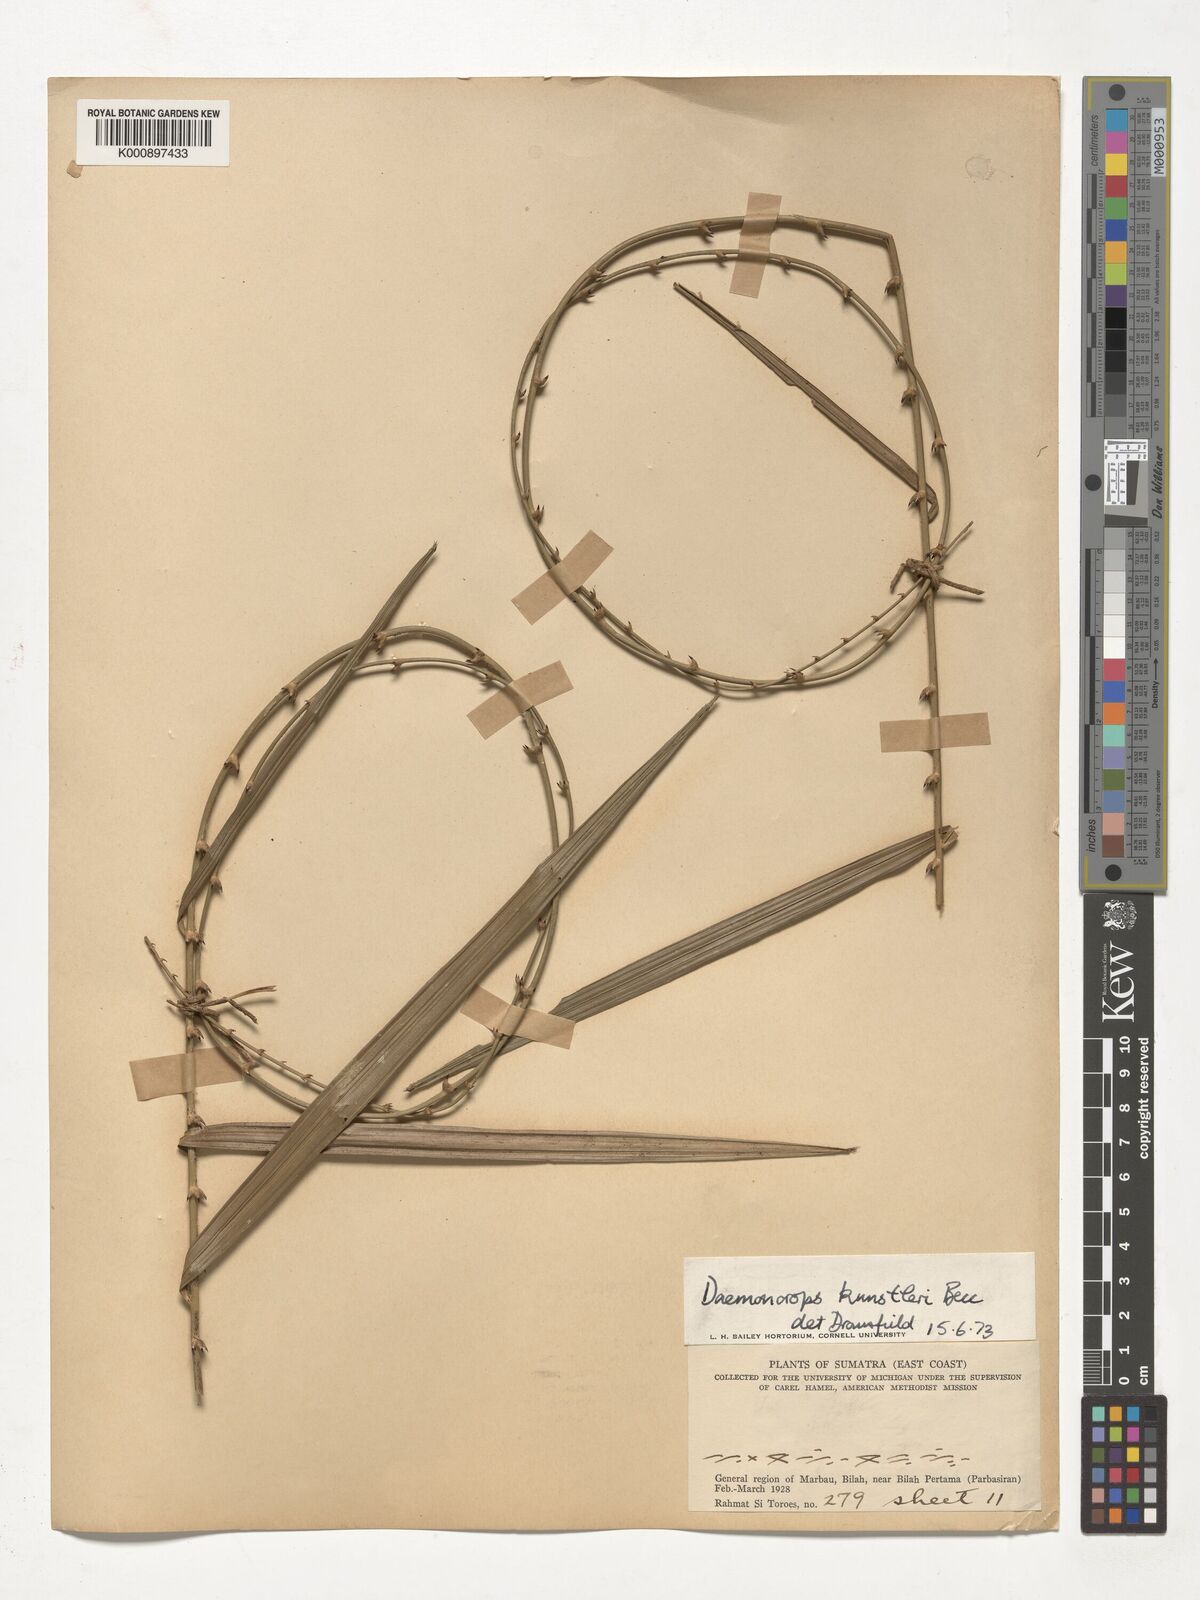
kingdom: Plantae
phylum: Tracheophyta
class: Liliopsida
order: Arecales
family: Arecaceae
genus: Calamus
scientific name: Calamus kunstleri
